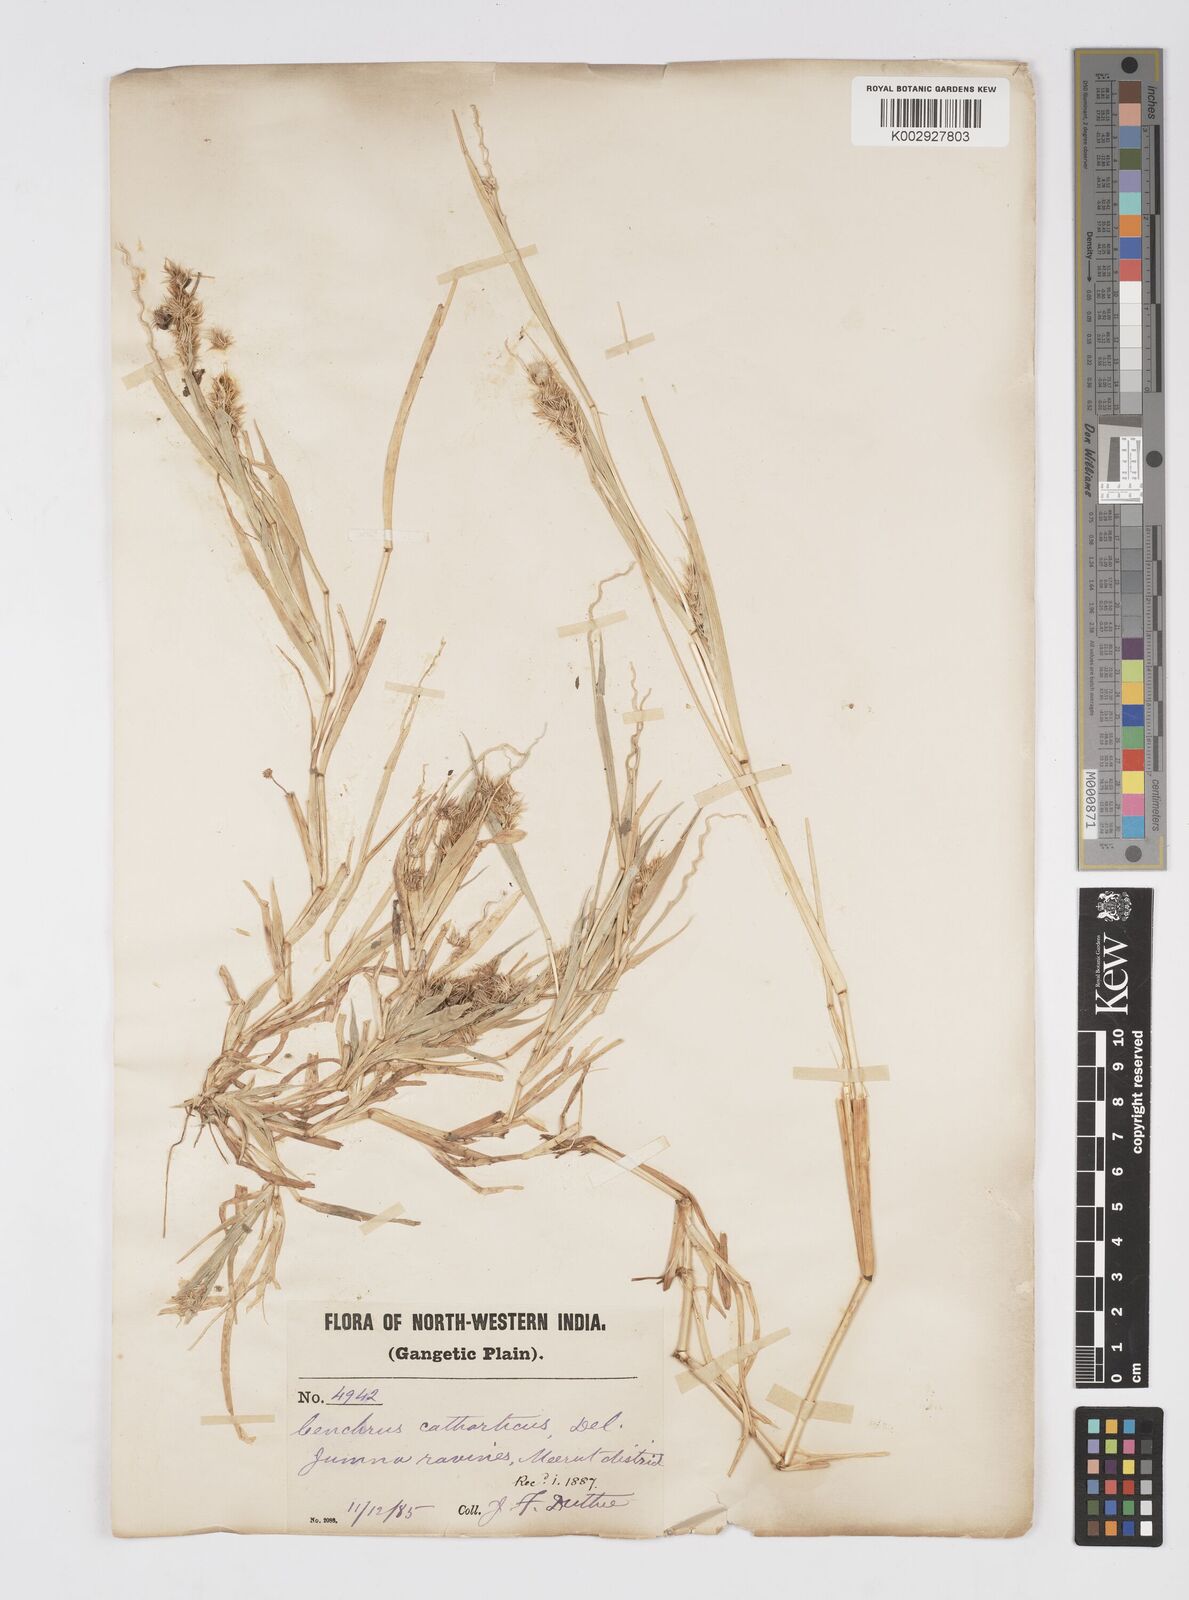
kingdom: Plantae
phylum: Tracheophyta
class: Liliopsida
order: Poales
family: Poaceae
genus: Cenchrus
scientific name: Cenchrus biflorus
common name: Indian sandbur
